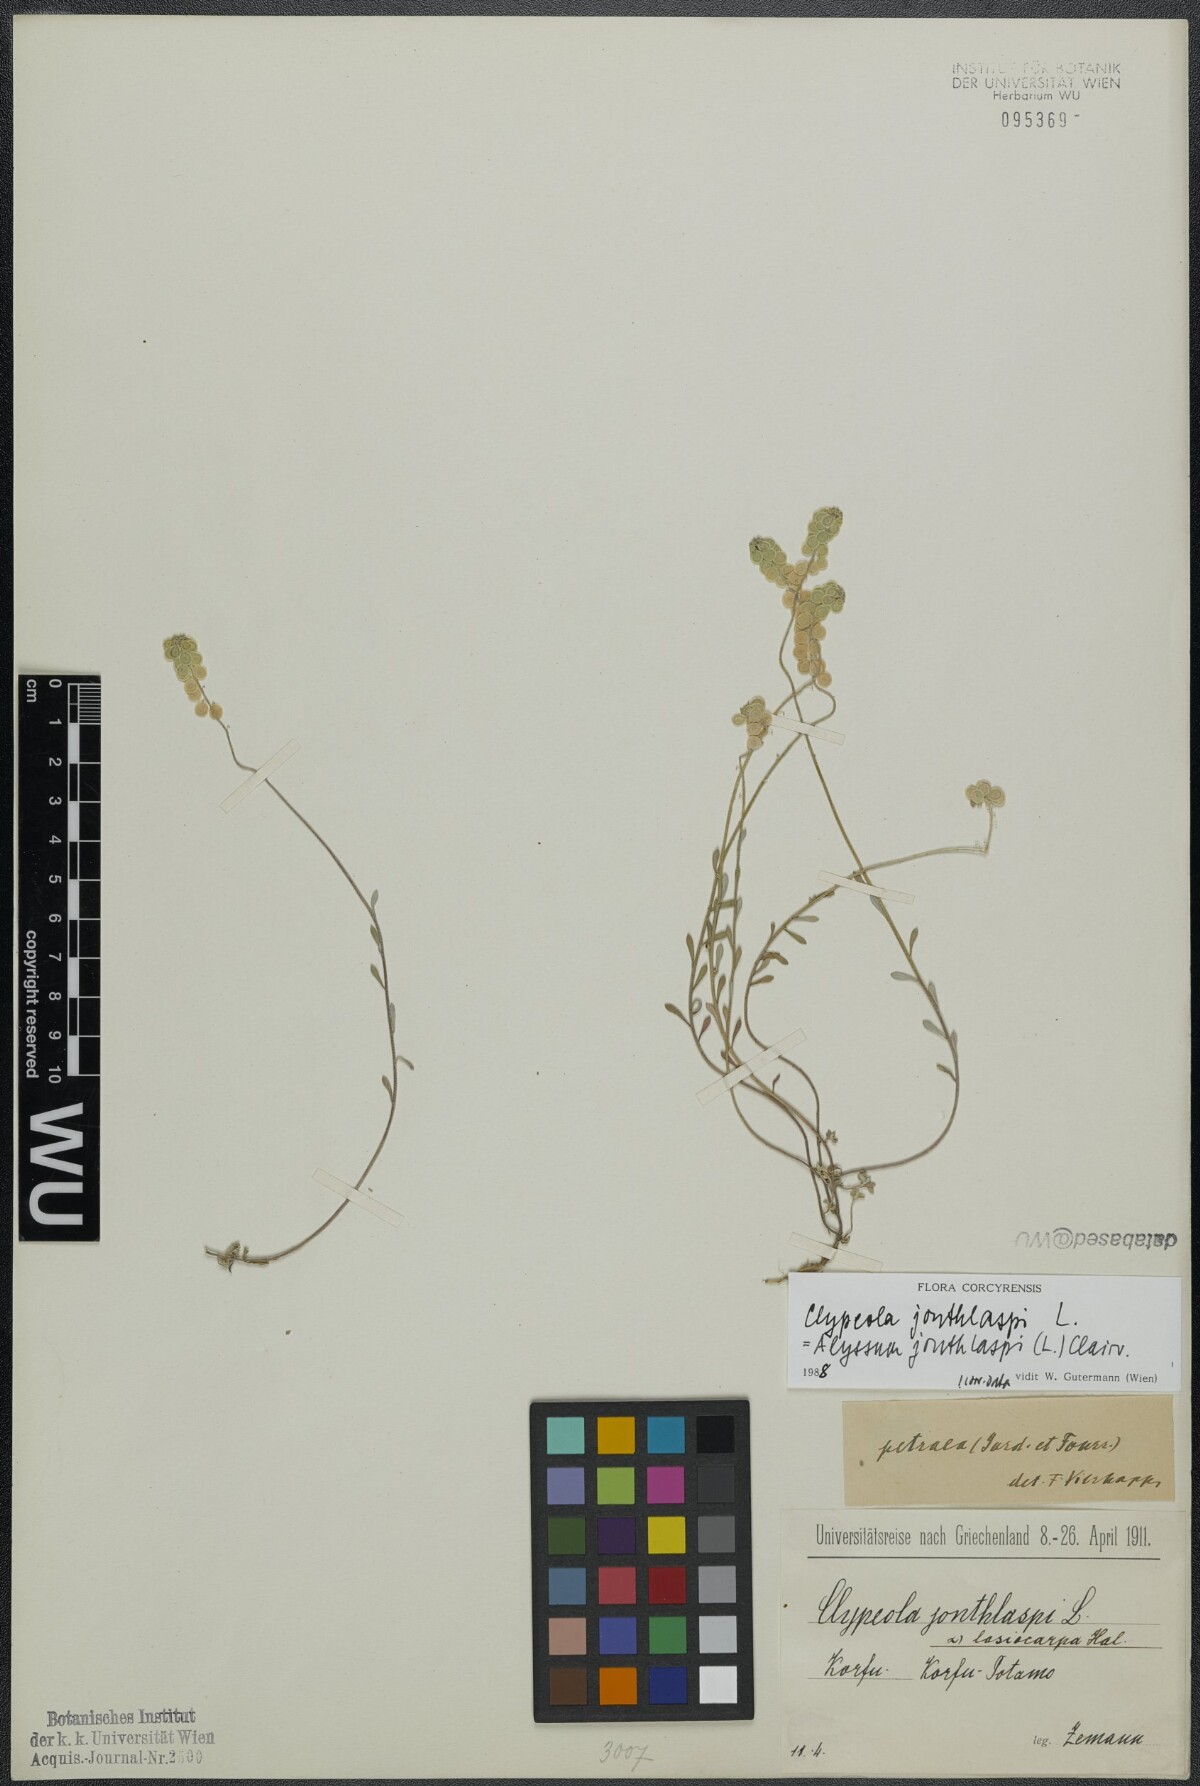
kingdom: Plantae
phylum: Tracheophyta
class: Magnoliopsida
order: Brassicales
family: Brassicaceae
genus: Clypeola
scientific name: Clypeola jonthlaspi
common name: Disk cress
